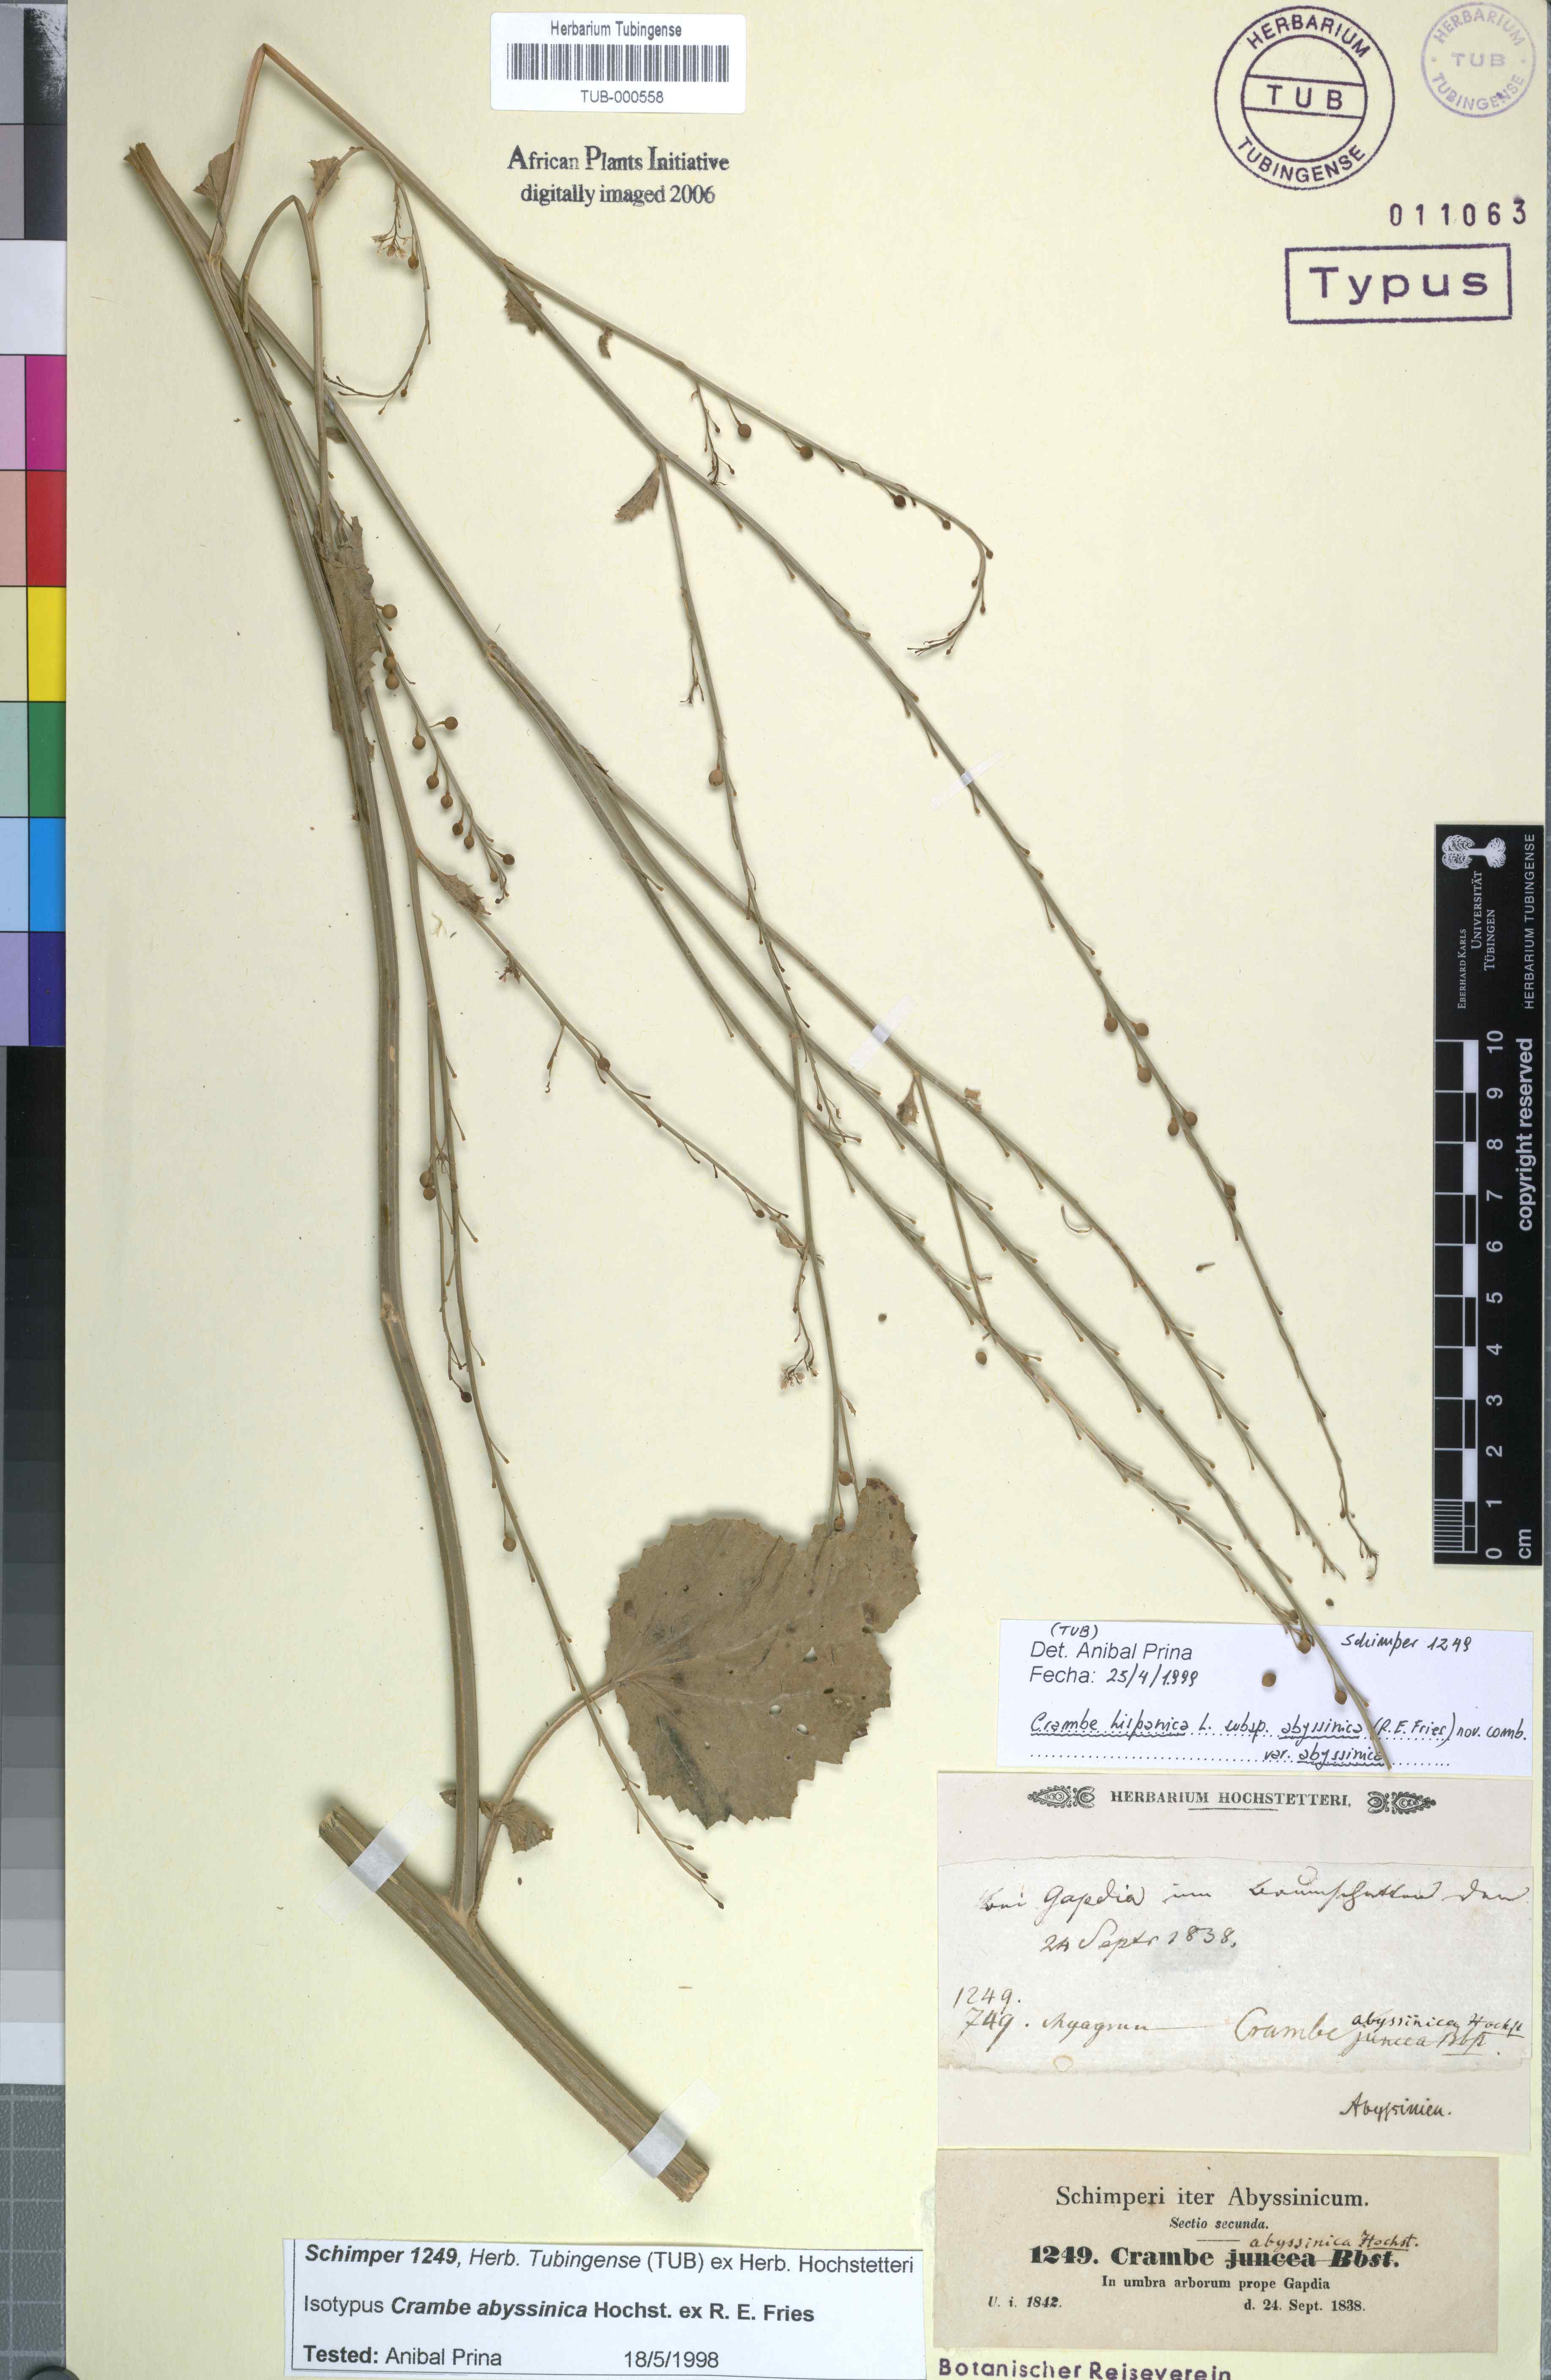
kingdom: Plantae
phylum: Tracheophyta
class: Magnoliopsida
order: Brassicales
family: Brassicaceae
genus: Crambe
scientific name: Crambe hispanica
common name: Abyssinian mustard
